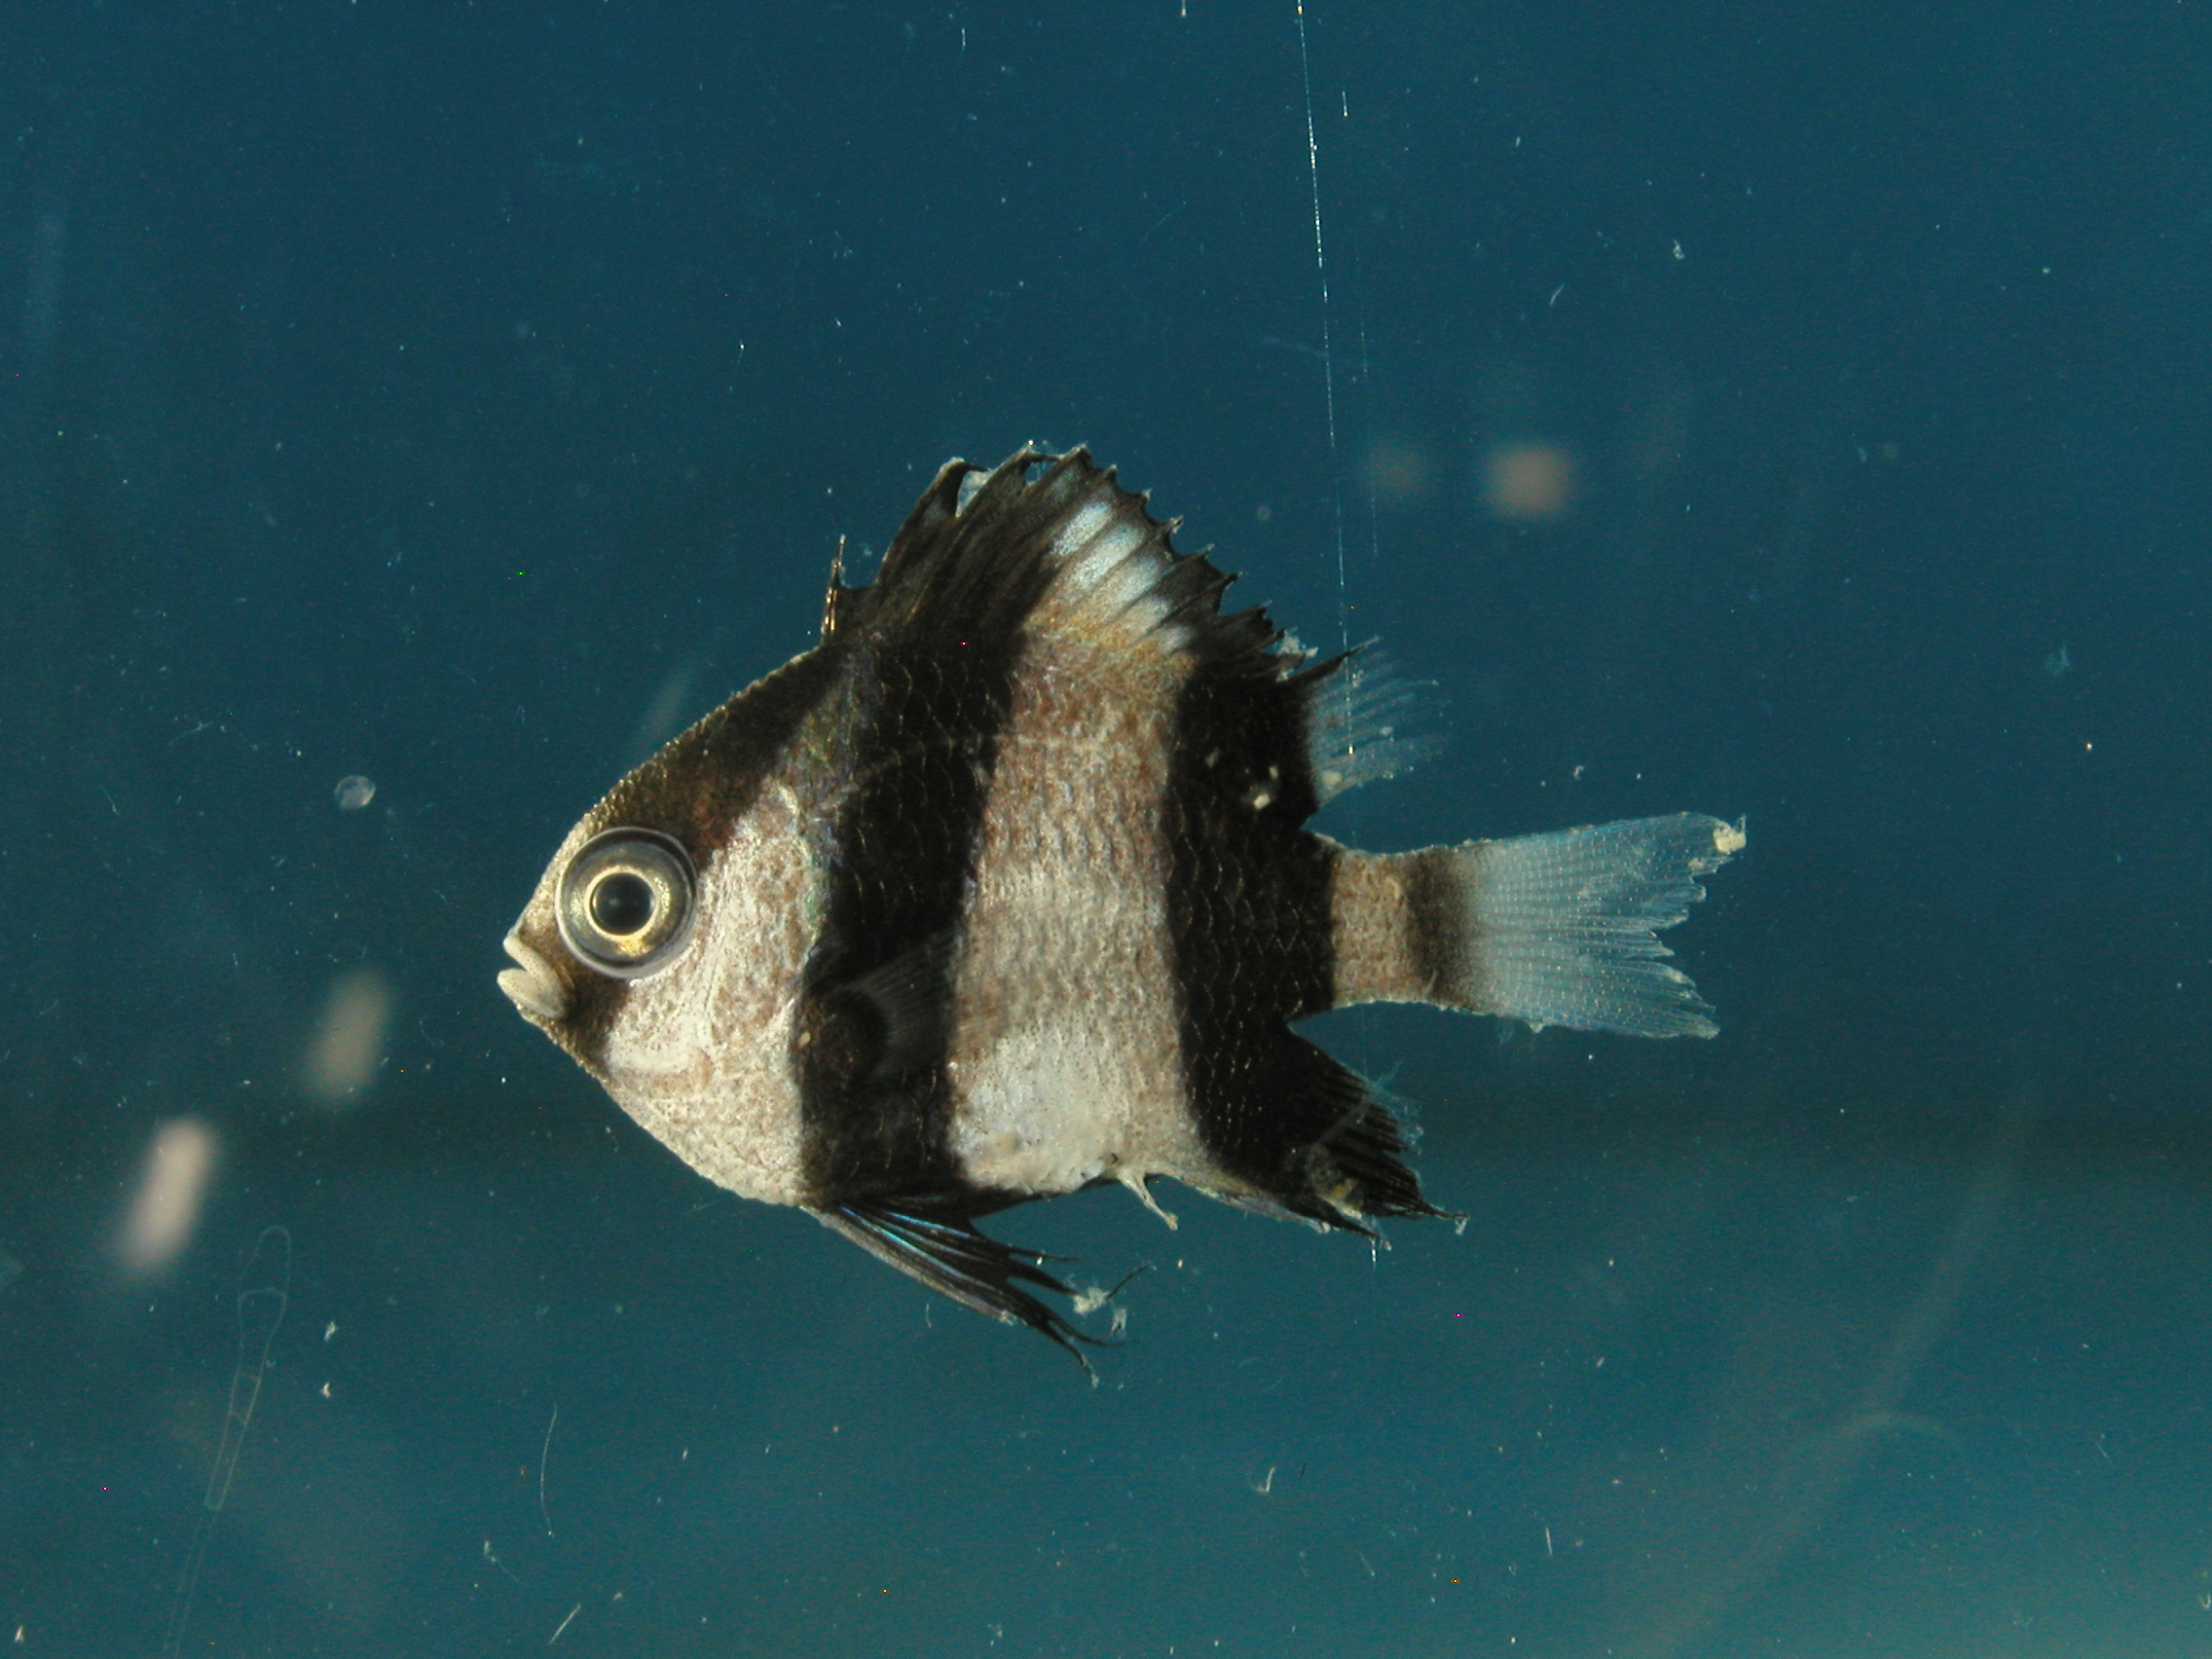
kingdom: Animalia
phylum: Chordata
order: Perciformes
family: Pomacentridae
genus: Dascyllus
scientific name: Dascyllus aruanus
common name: Humbug dascyllus
